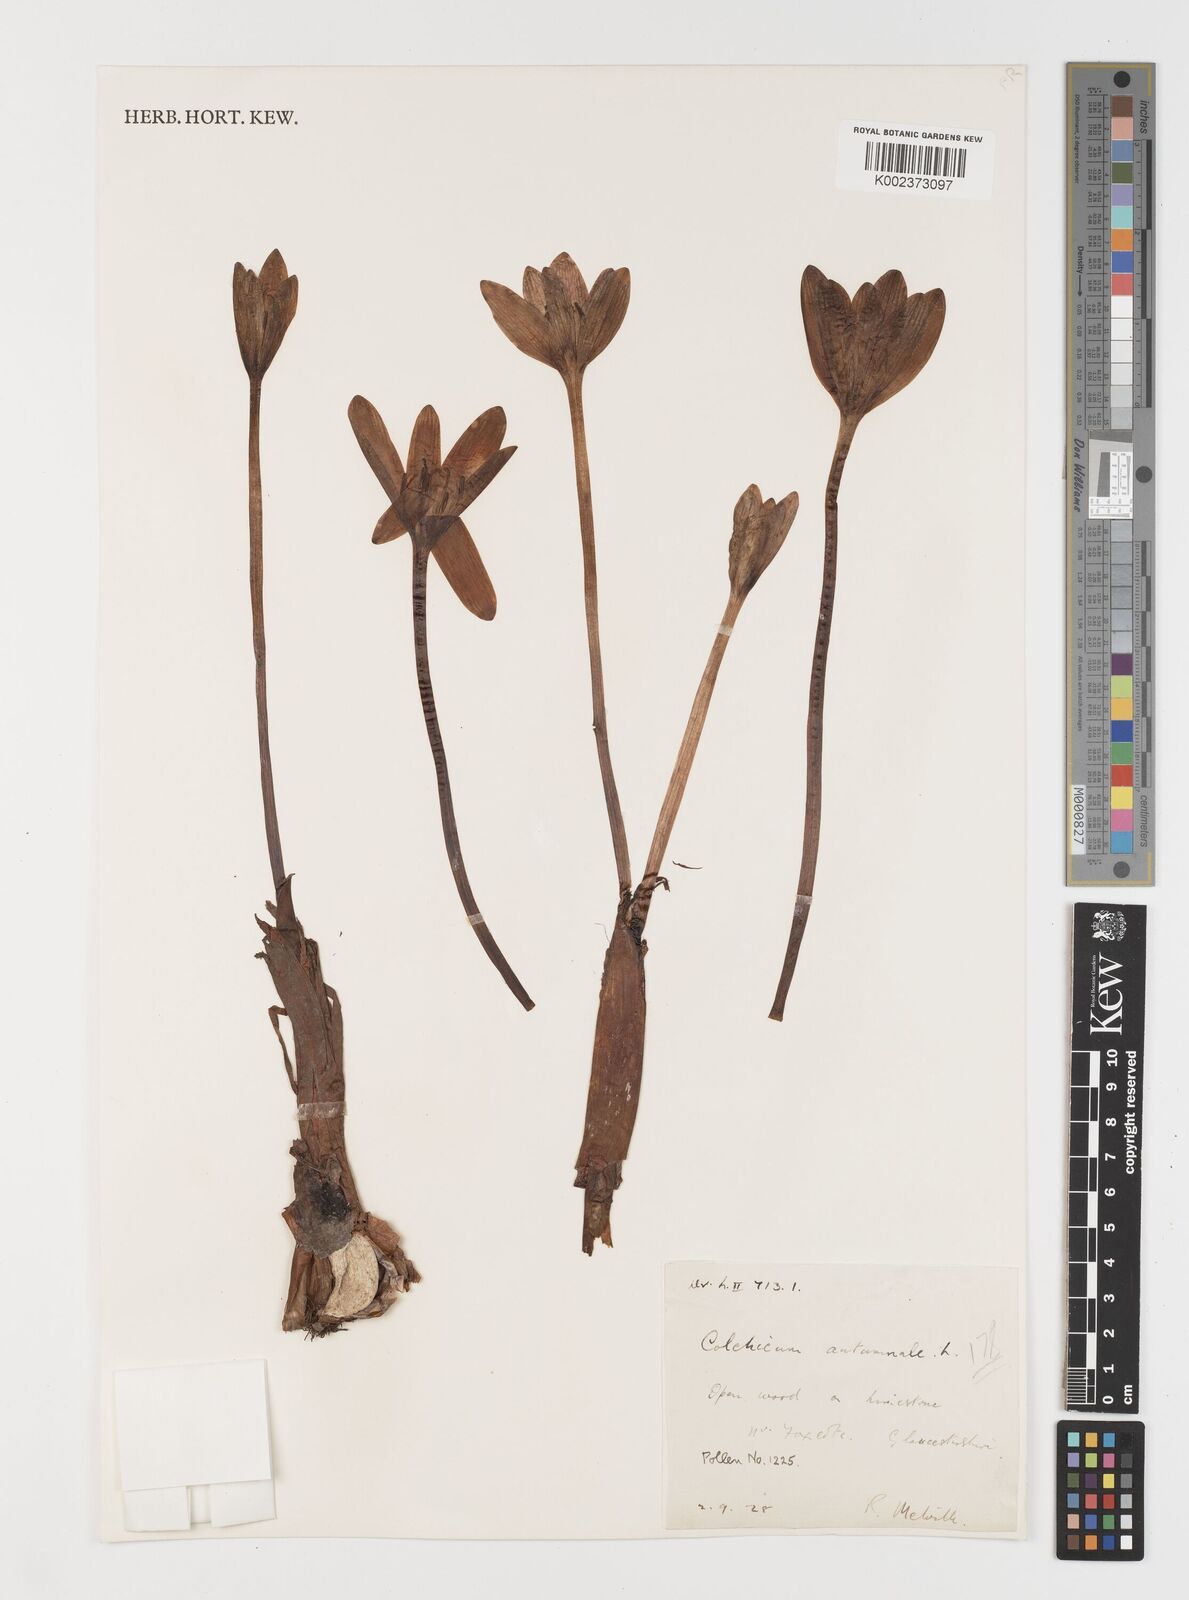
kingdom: Plantae
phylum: Tracheophyta
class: Liliopsida
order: Liliales
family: Colchicaceae
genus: Colchicum
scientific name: Colchicum autumnale
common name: Autumn crocus
